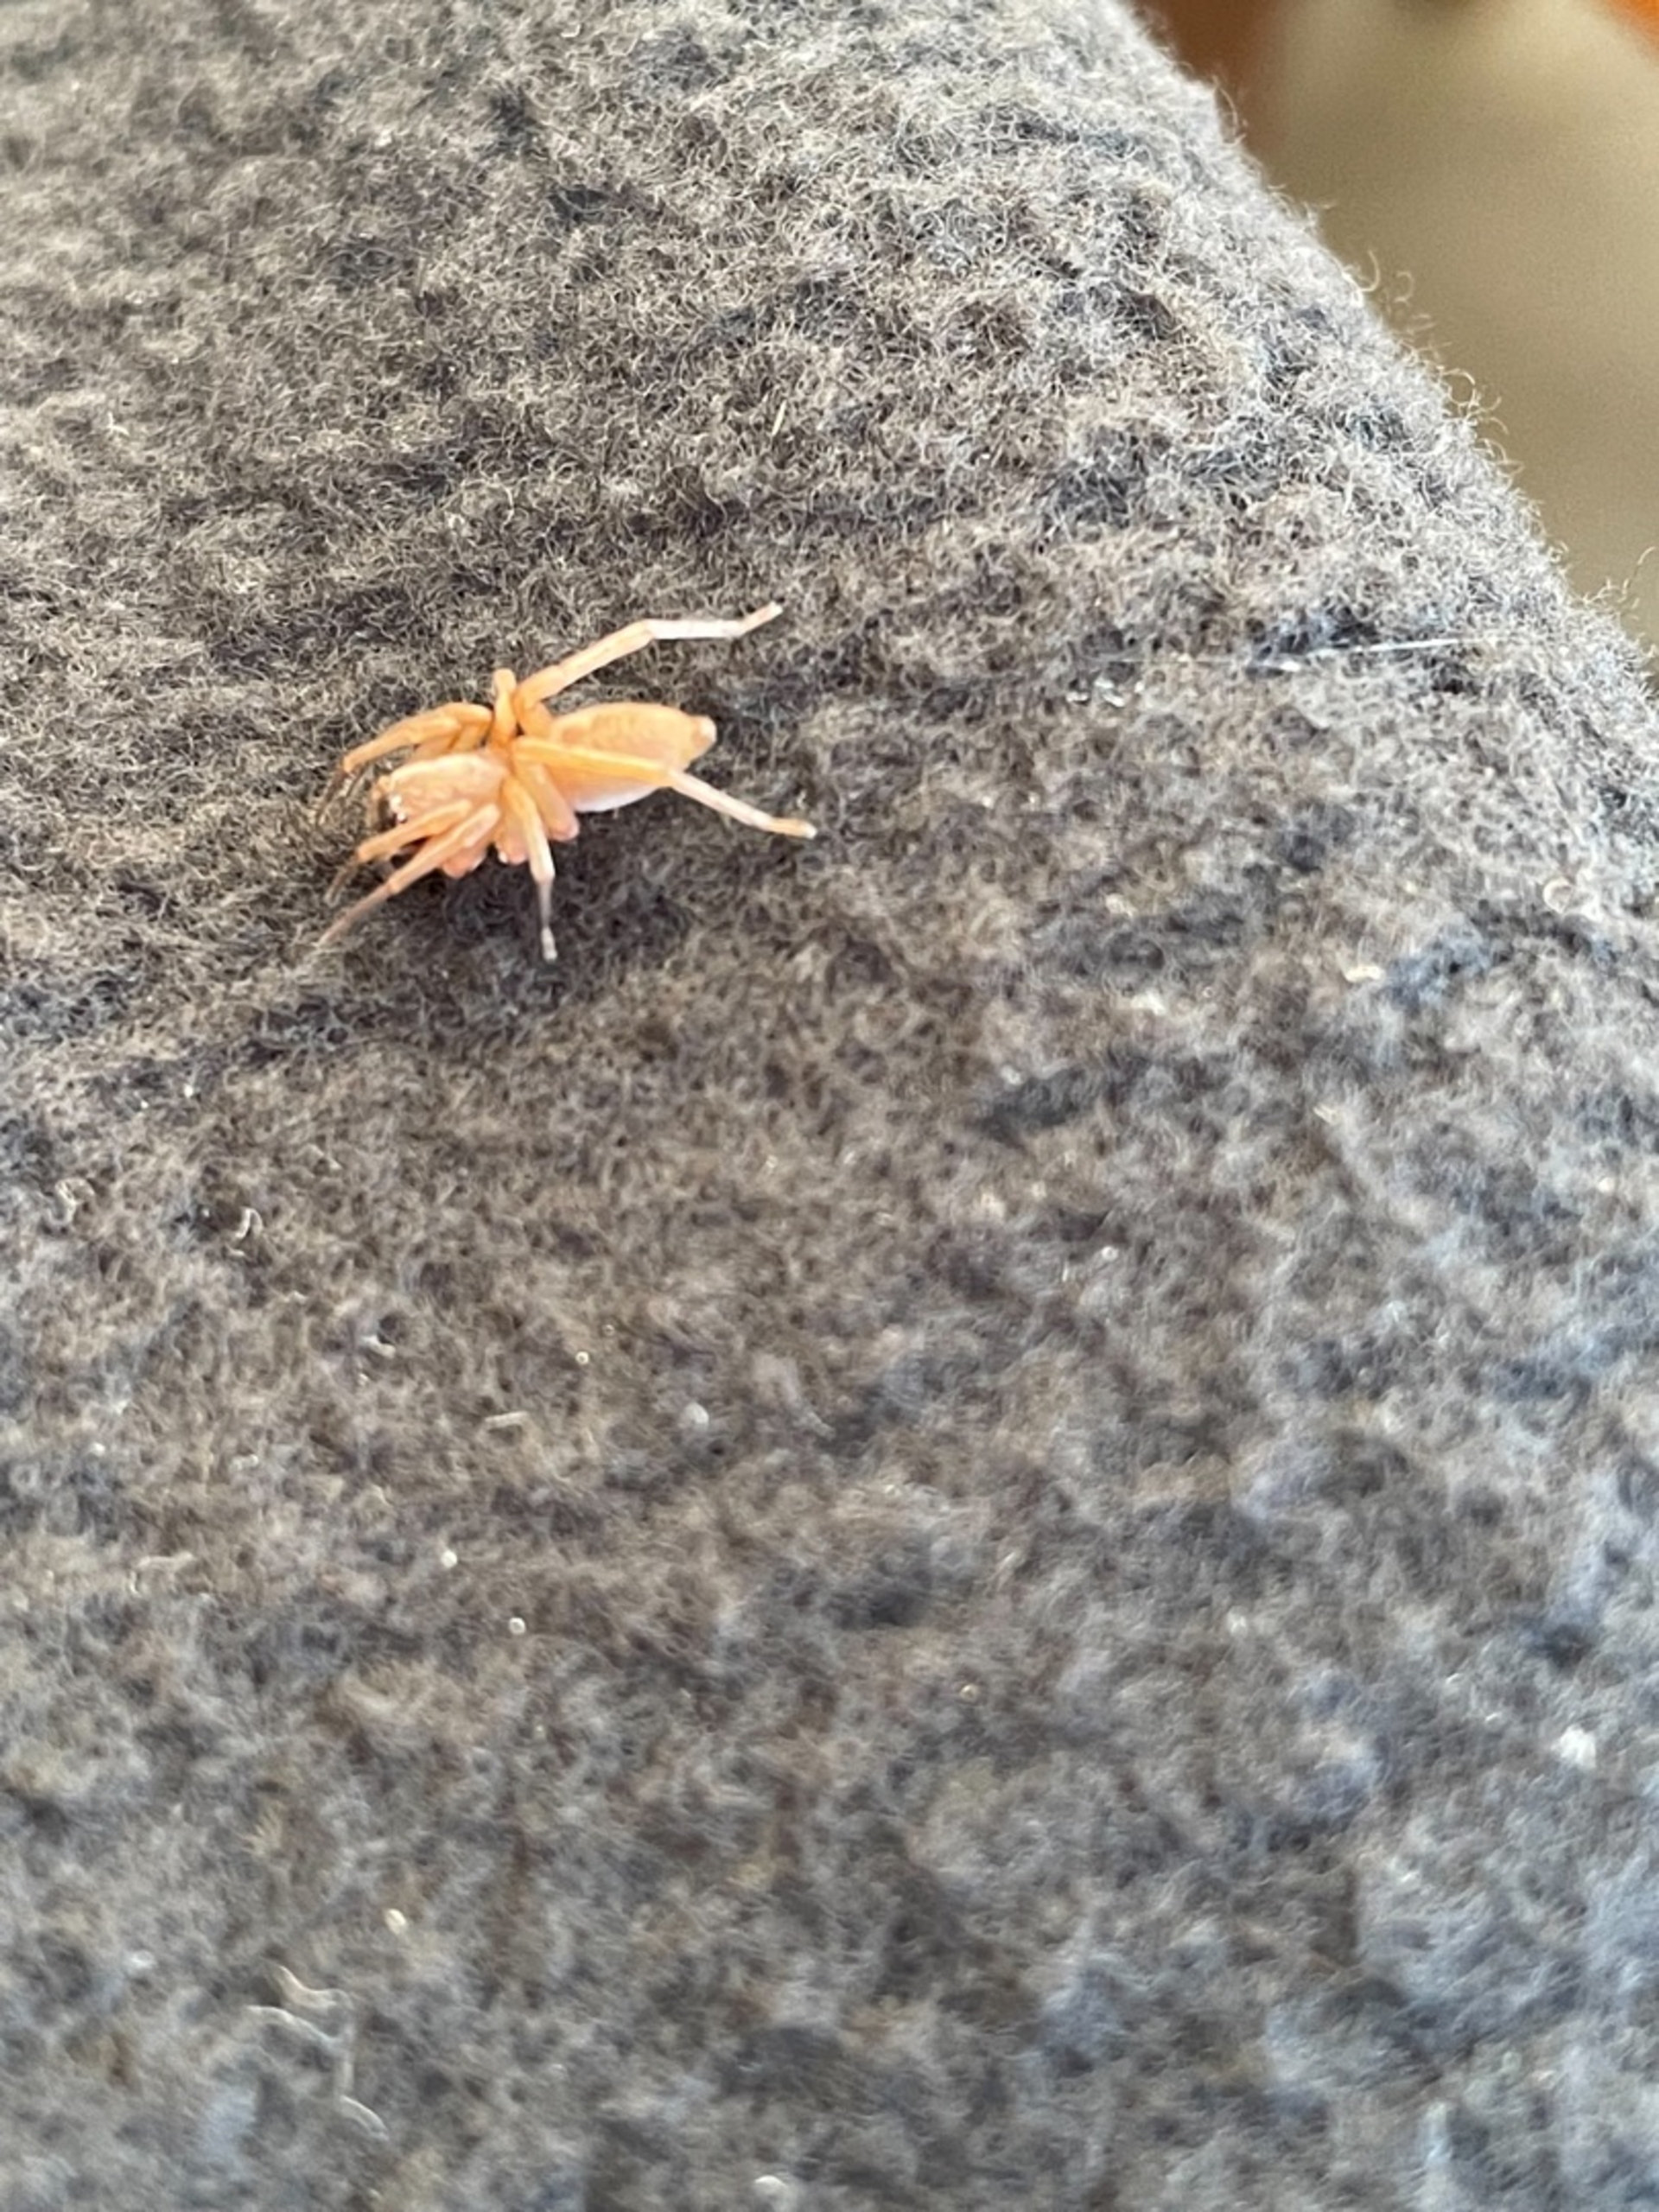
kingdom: Animalia
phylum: Arthropoda
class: Arachnida
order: Araneae
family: Clubionidae
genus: Clubiona
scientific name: Clubiona
